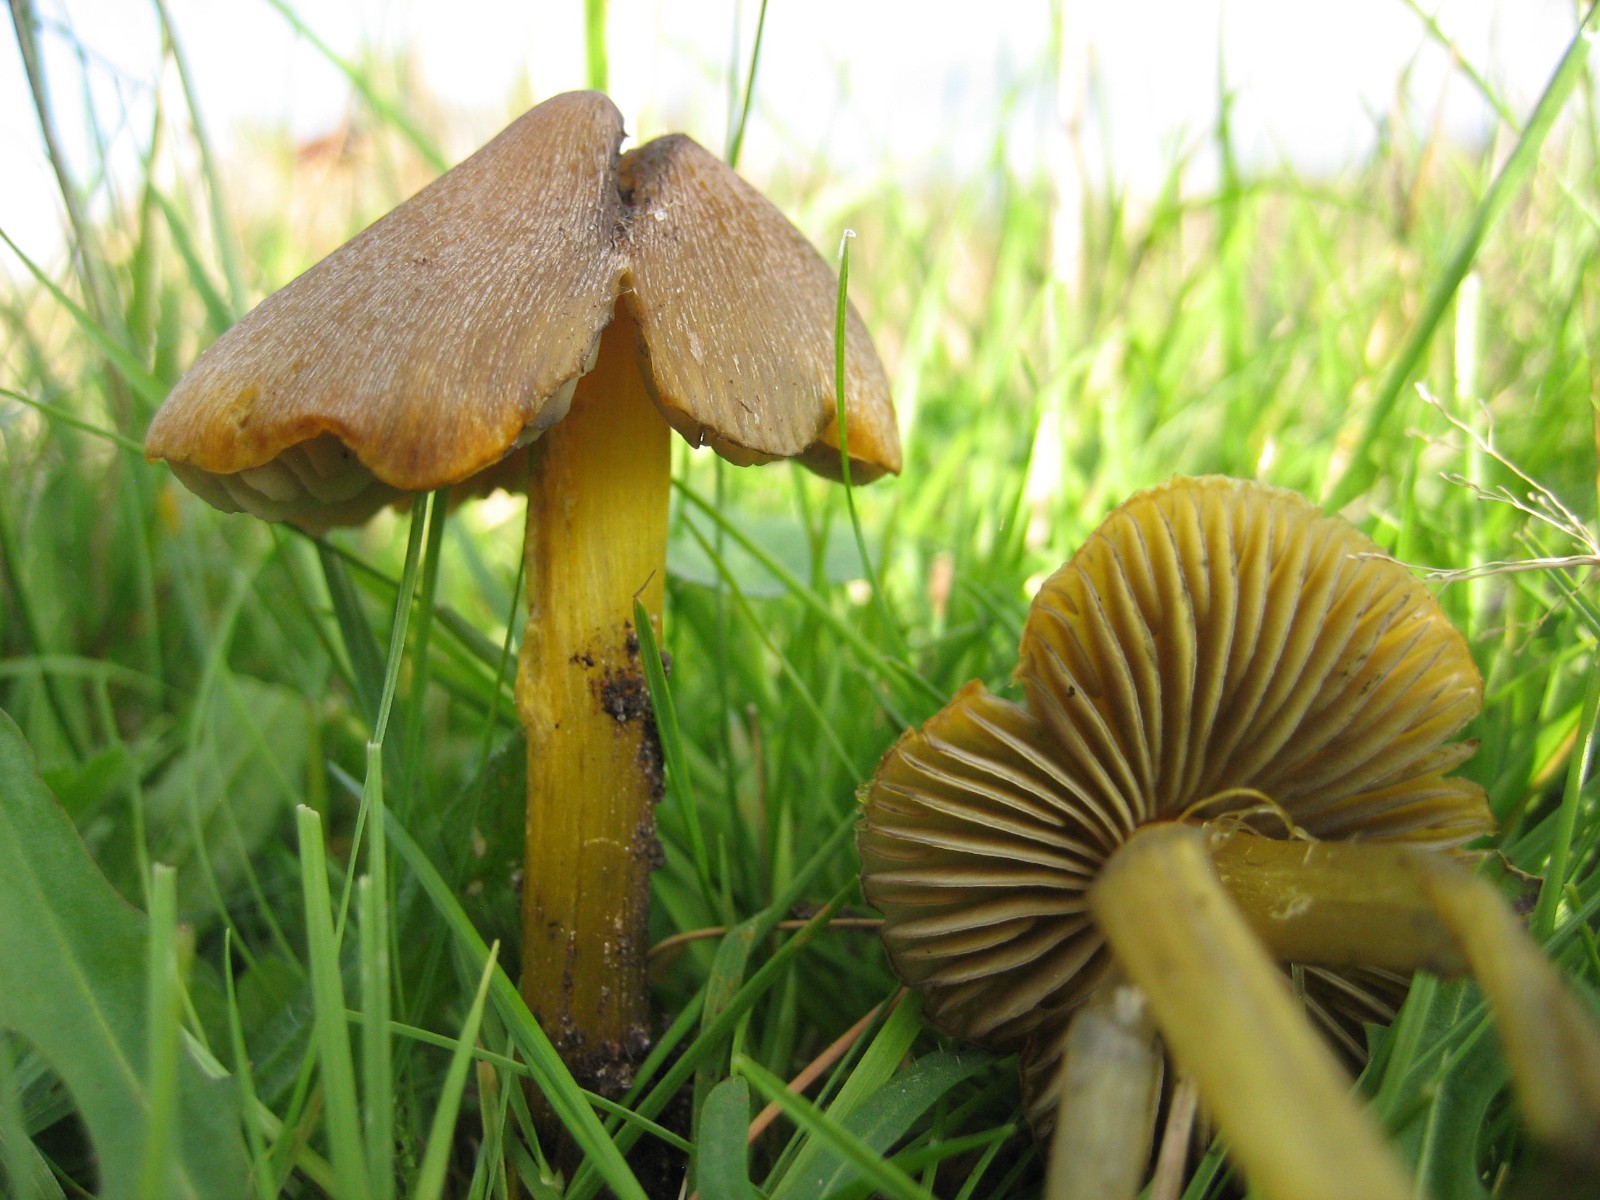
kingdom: Fungi
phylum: Basidiomycota
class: Agaricomycetes
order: Agaricales
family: Hygrophoraceae
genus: Hygrocybe
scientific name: Hygrocybe conica
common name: kegle-vokshat
